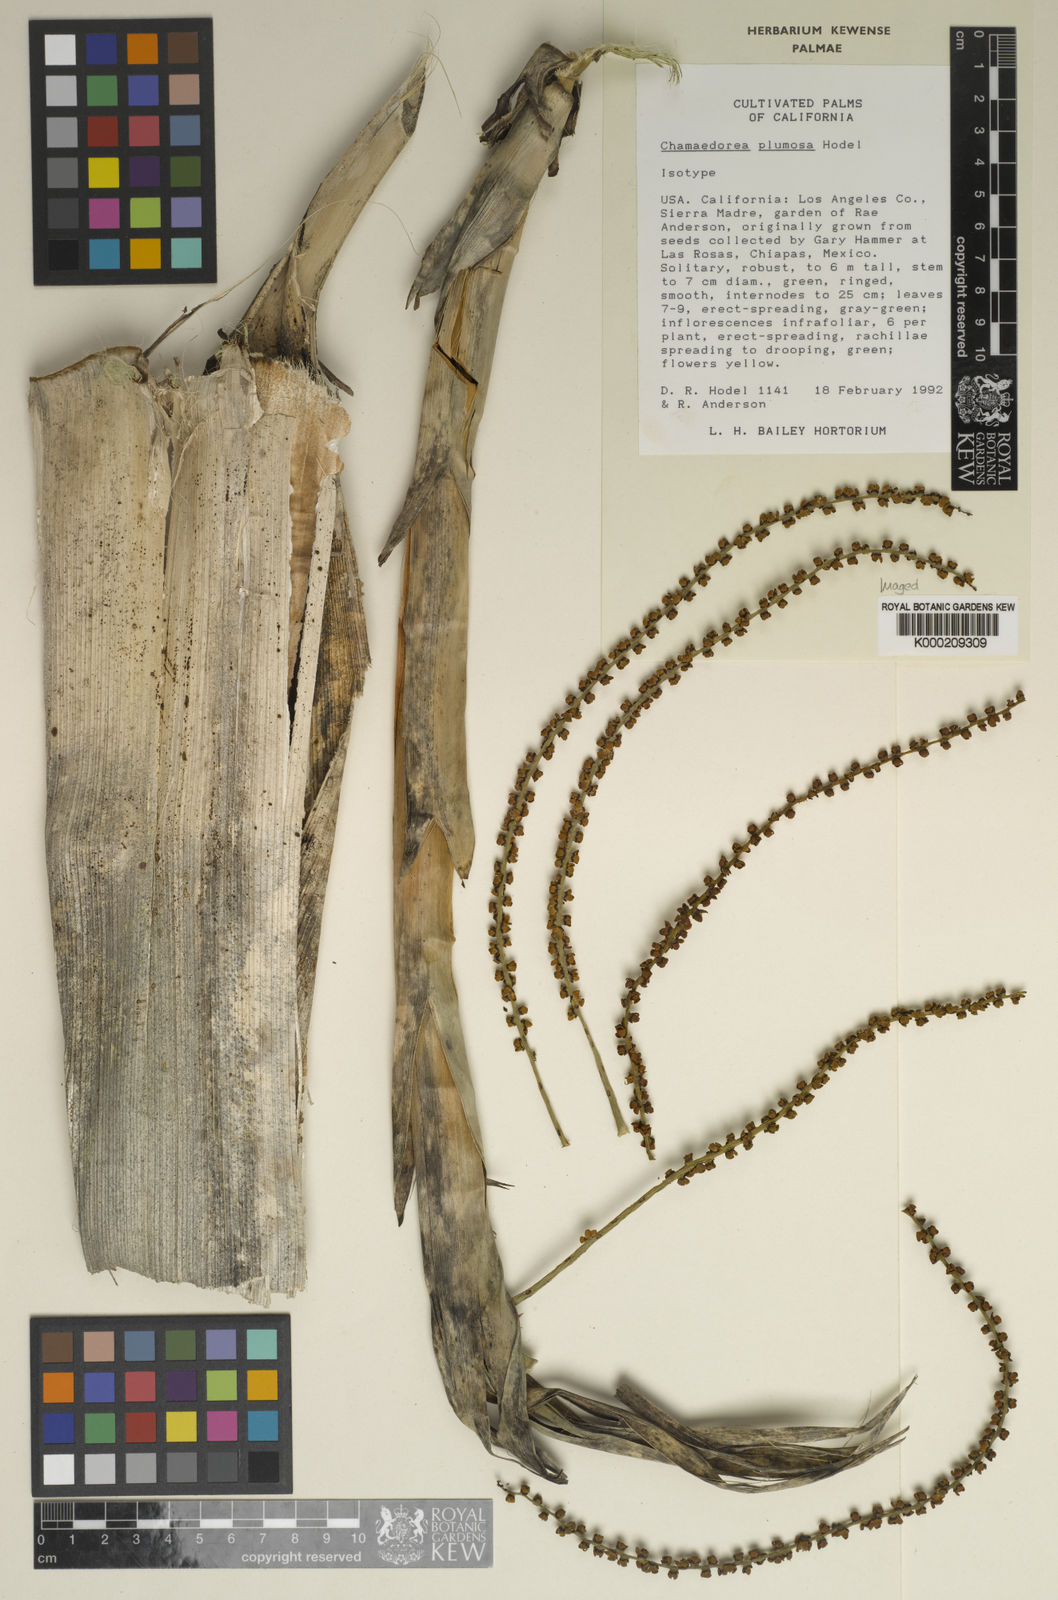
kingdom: Plantae
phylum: Tracheophyta
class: Liliopsida
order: Arecales
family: Arecaceae
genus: Chamaedorea
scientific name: Chamaedorea plumosa
